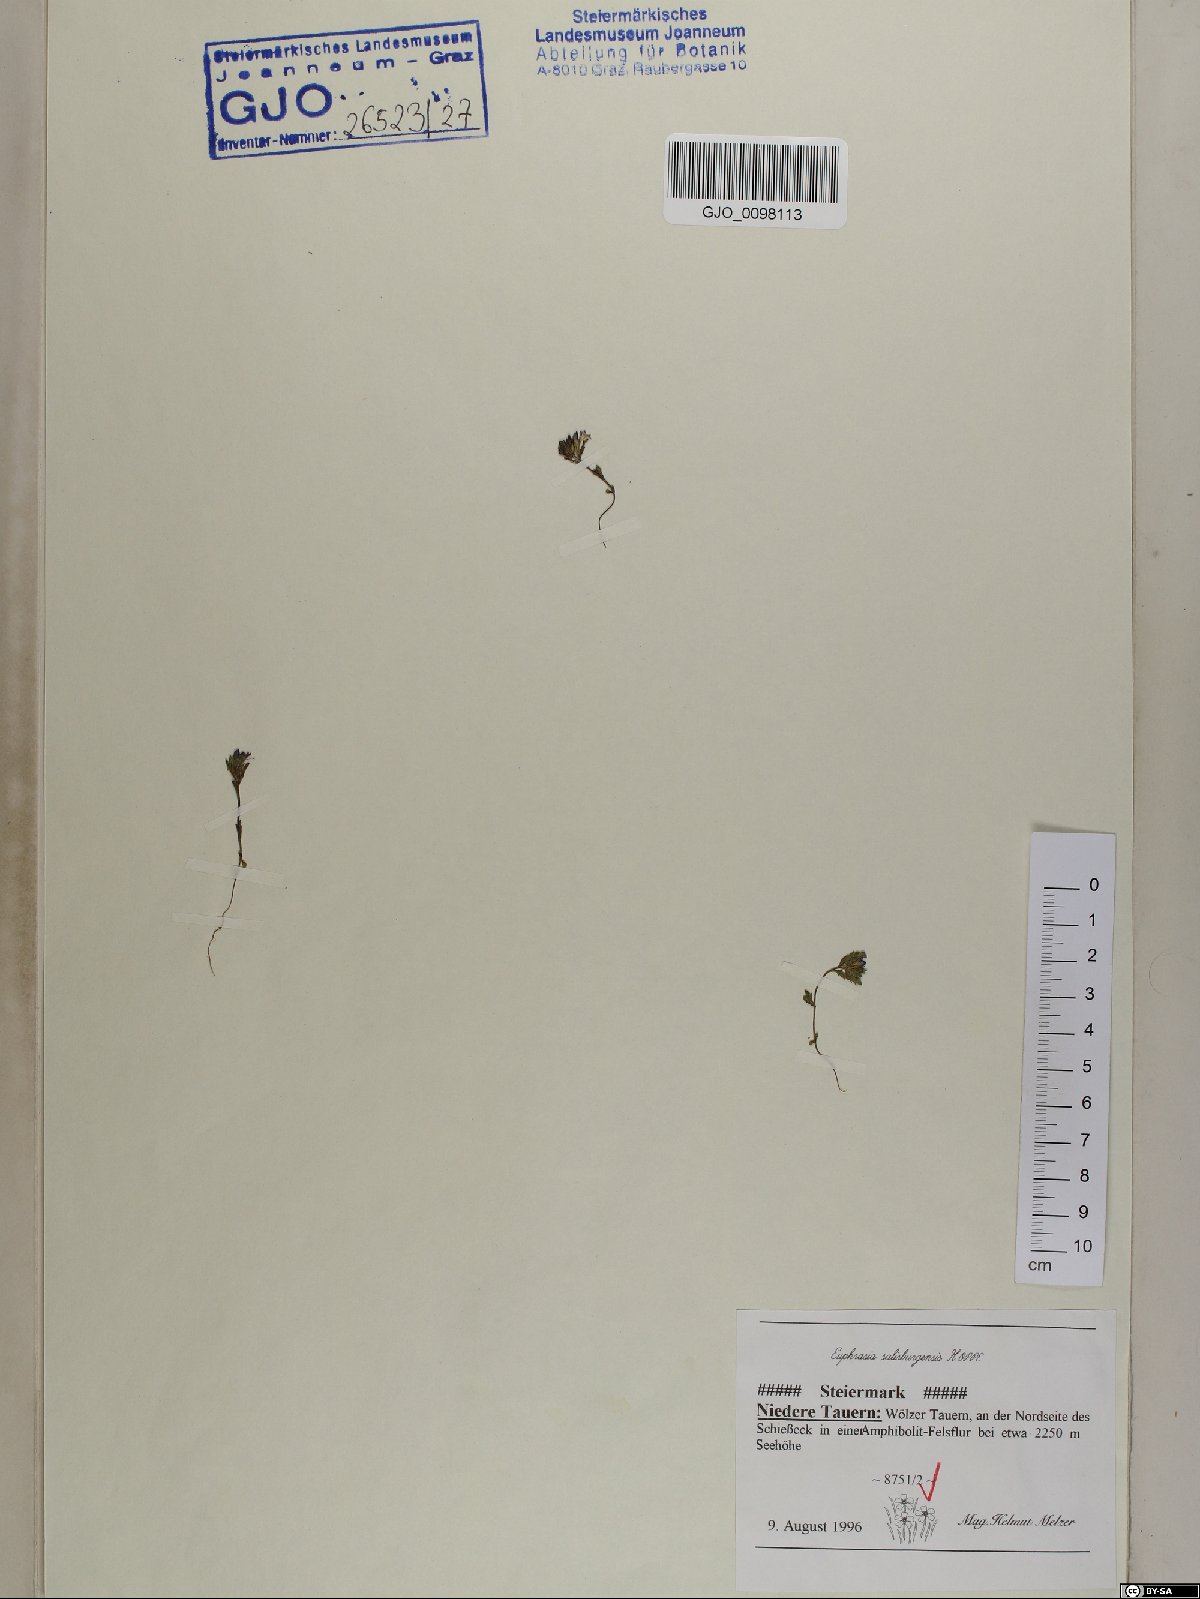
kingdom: Plantae
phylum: Tracheophyta
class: Magnoliopsida
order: Lamiales
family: Orobanchaceae
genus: Euphrasia
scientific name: Euphrasia salisburgensis
